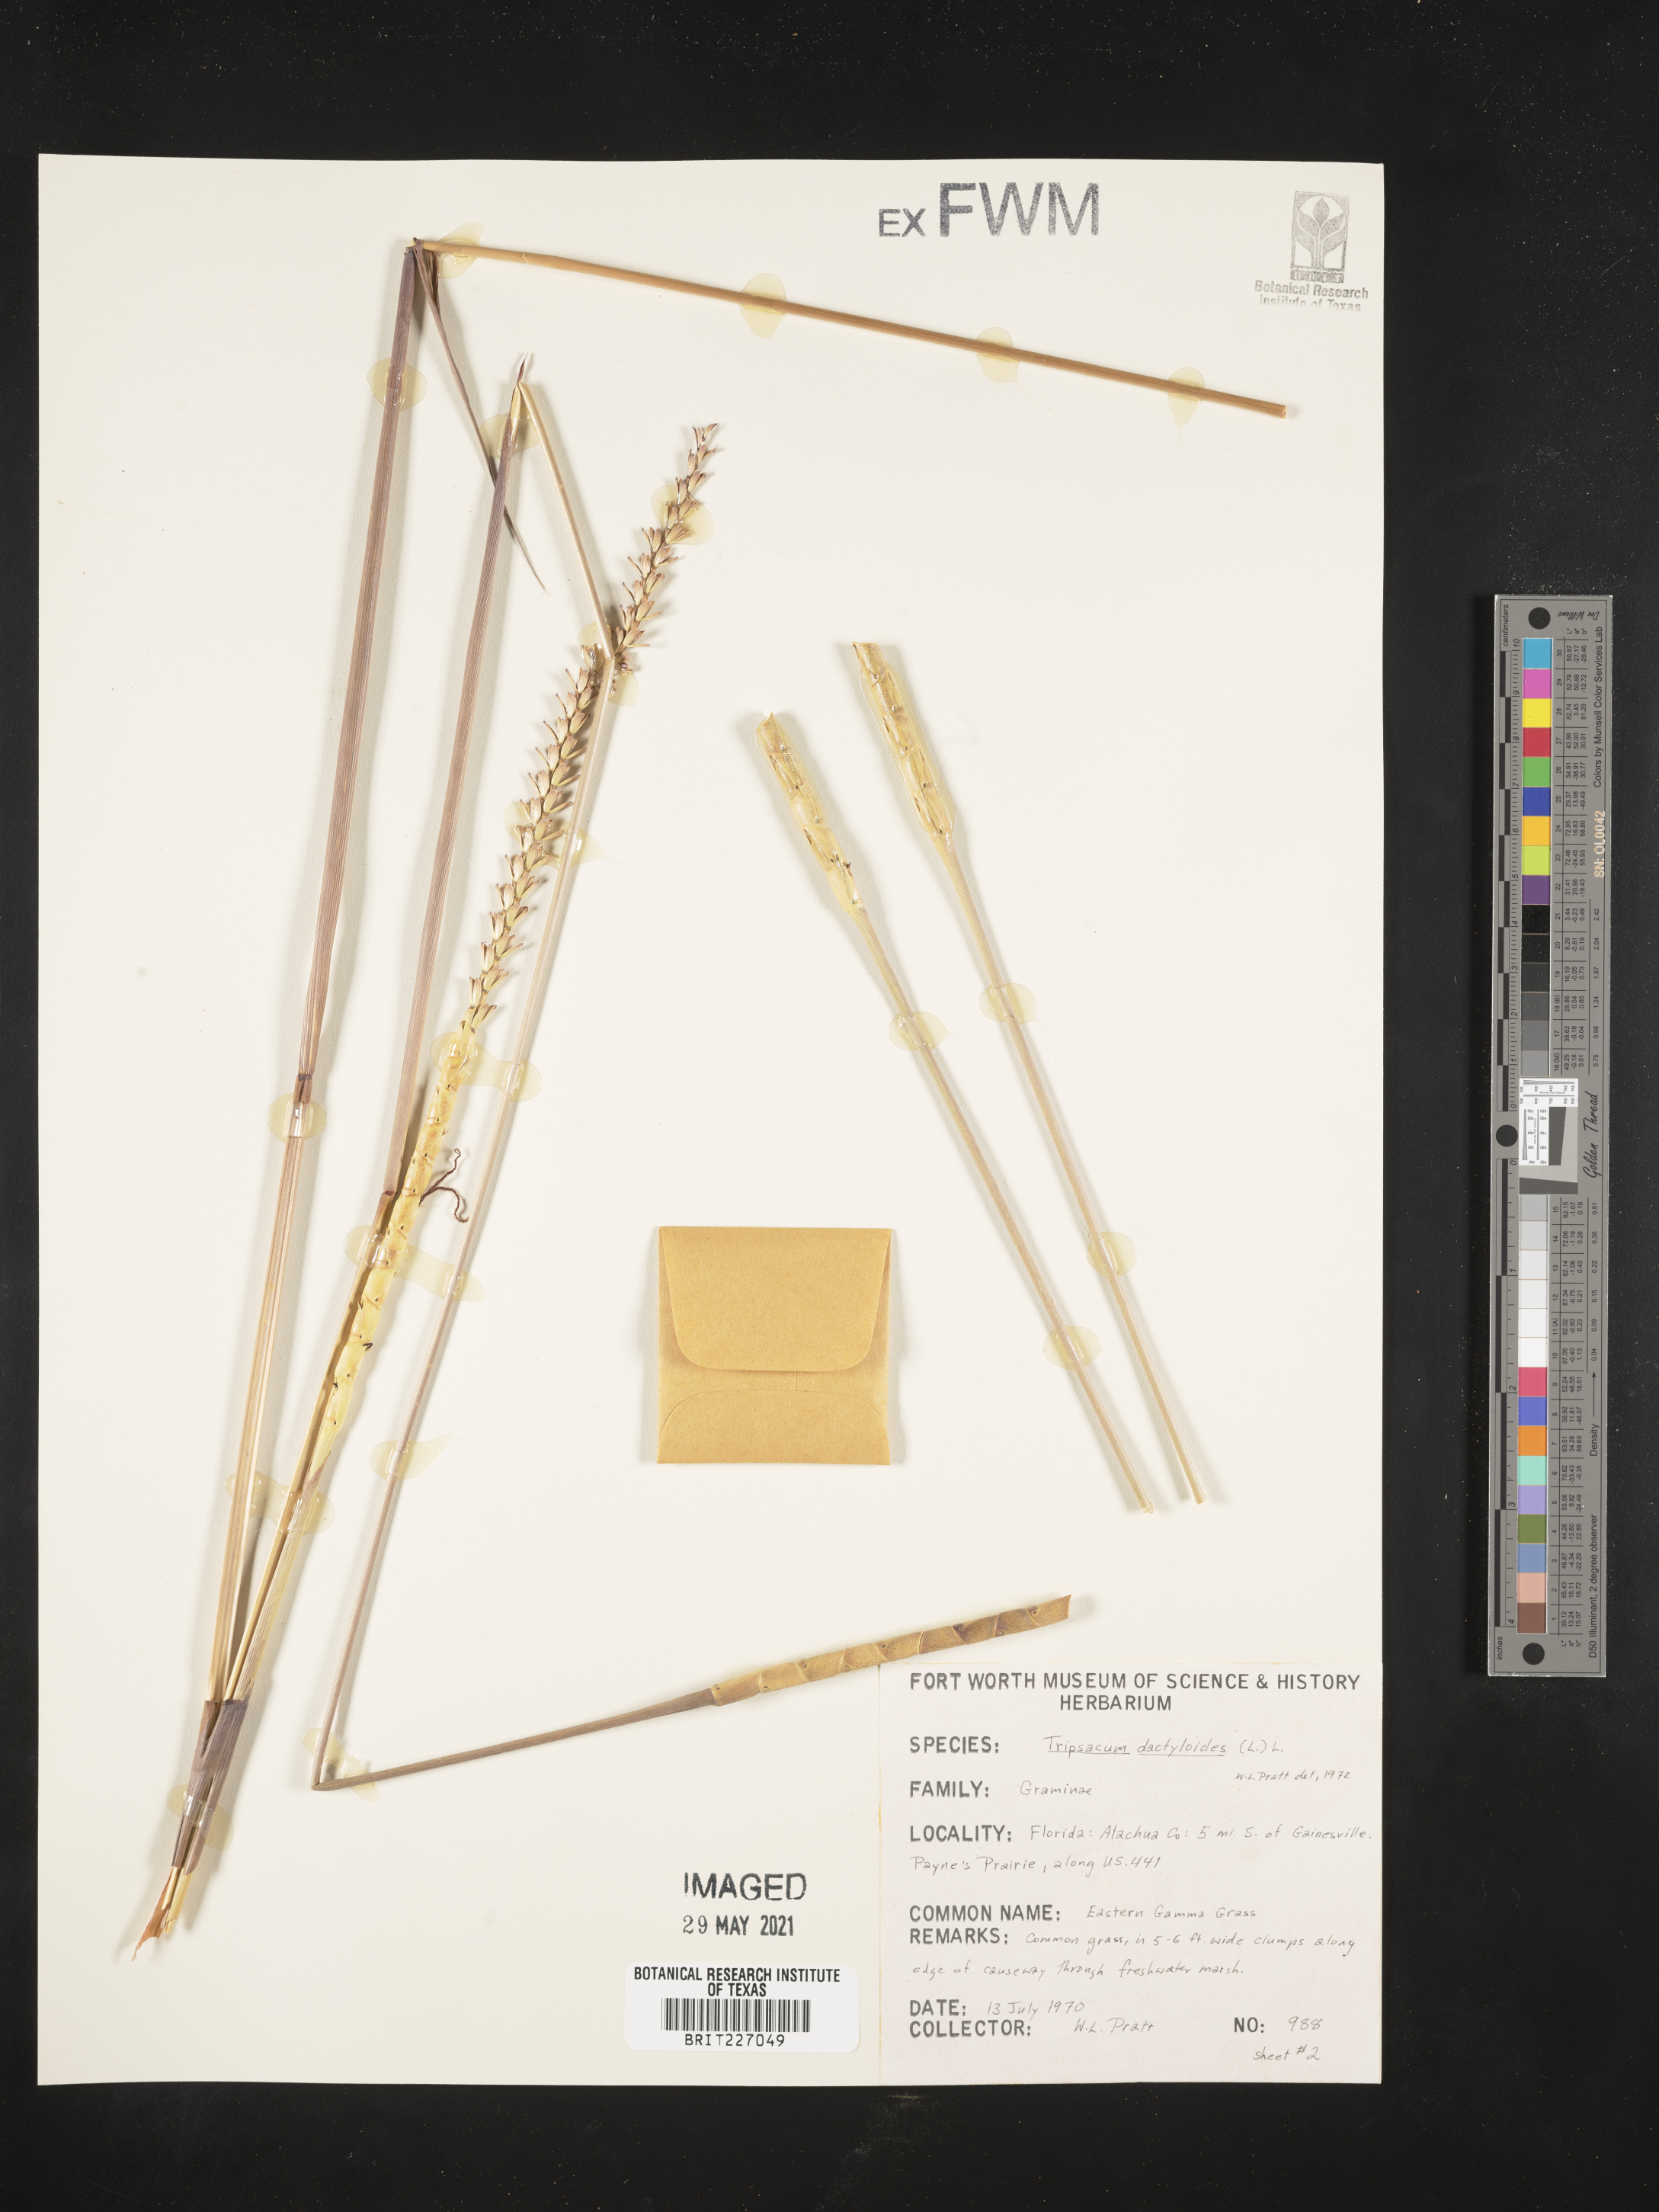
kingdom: Plantae
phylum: Tracheophyta
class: Liliopsida
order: Poales
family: Poaceae
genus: Tripsacum
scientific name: Tripsacum dactyloides
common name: Buffalo-grass
